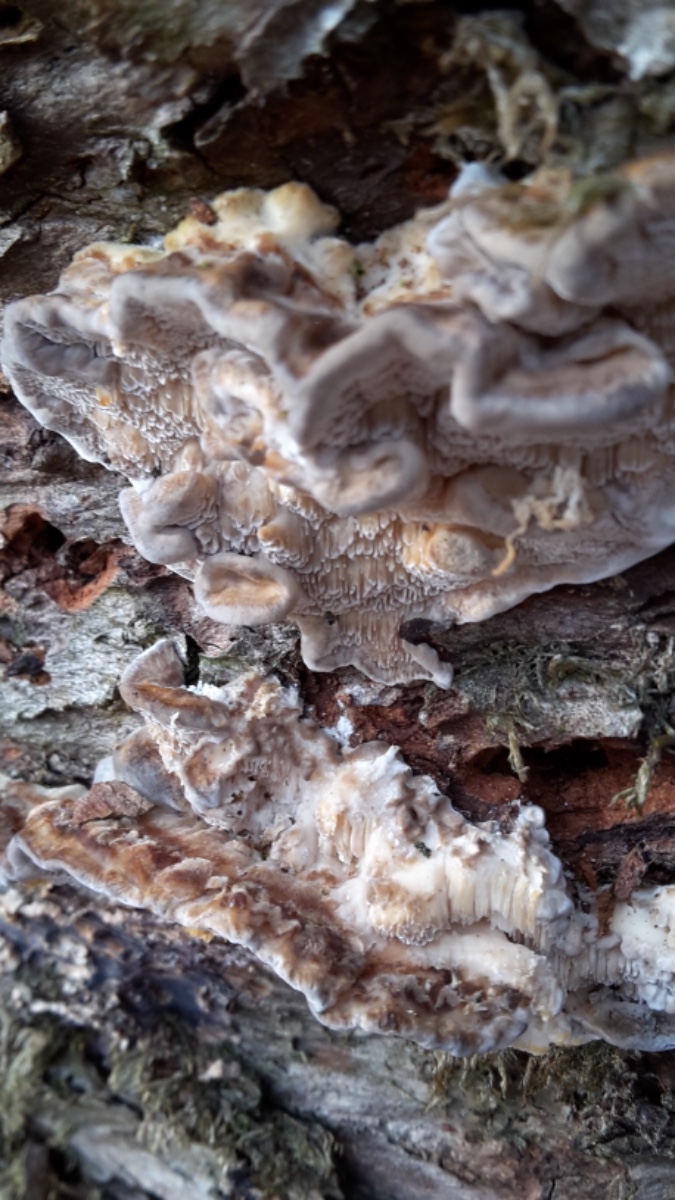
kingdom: Fungi
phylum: Basidiomycota
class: Agaricomycetes
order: Polyporales
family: Polyporaceae
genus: Trametes
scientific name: Trametes ochracea
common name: bæltet læderporesvamp
